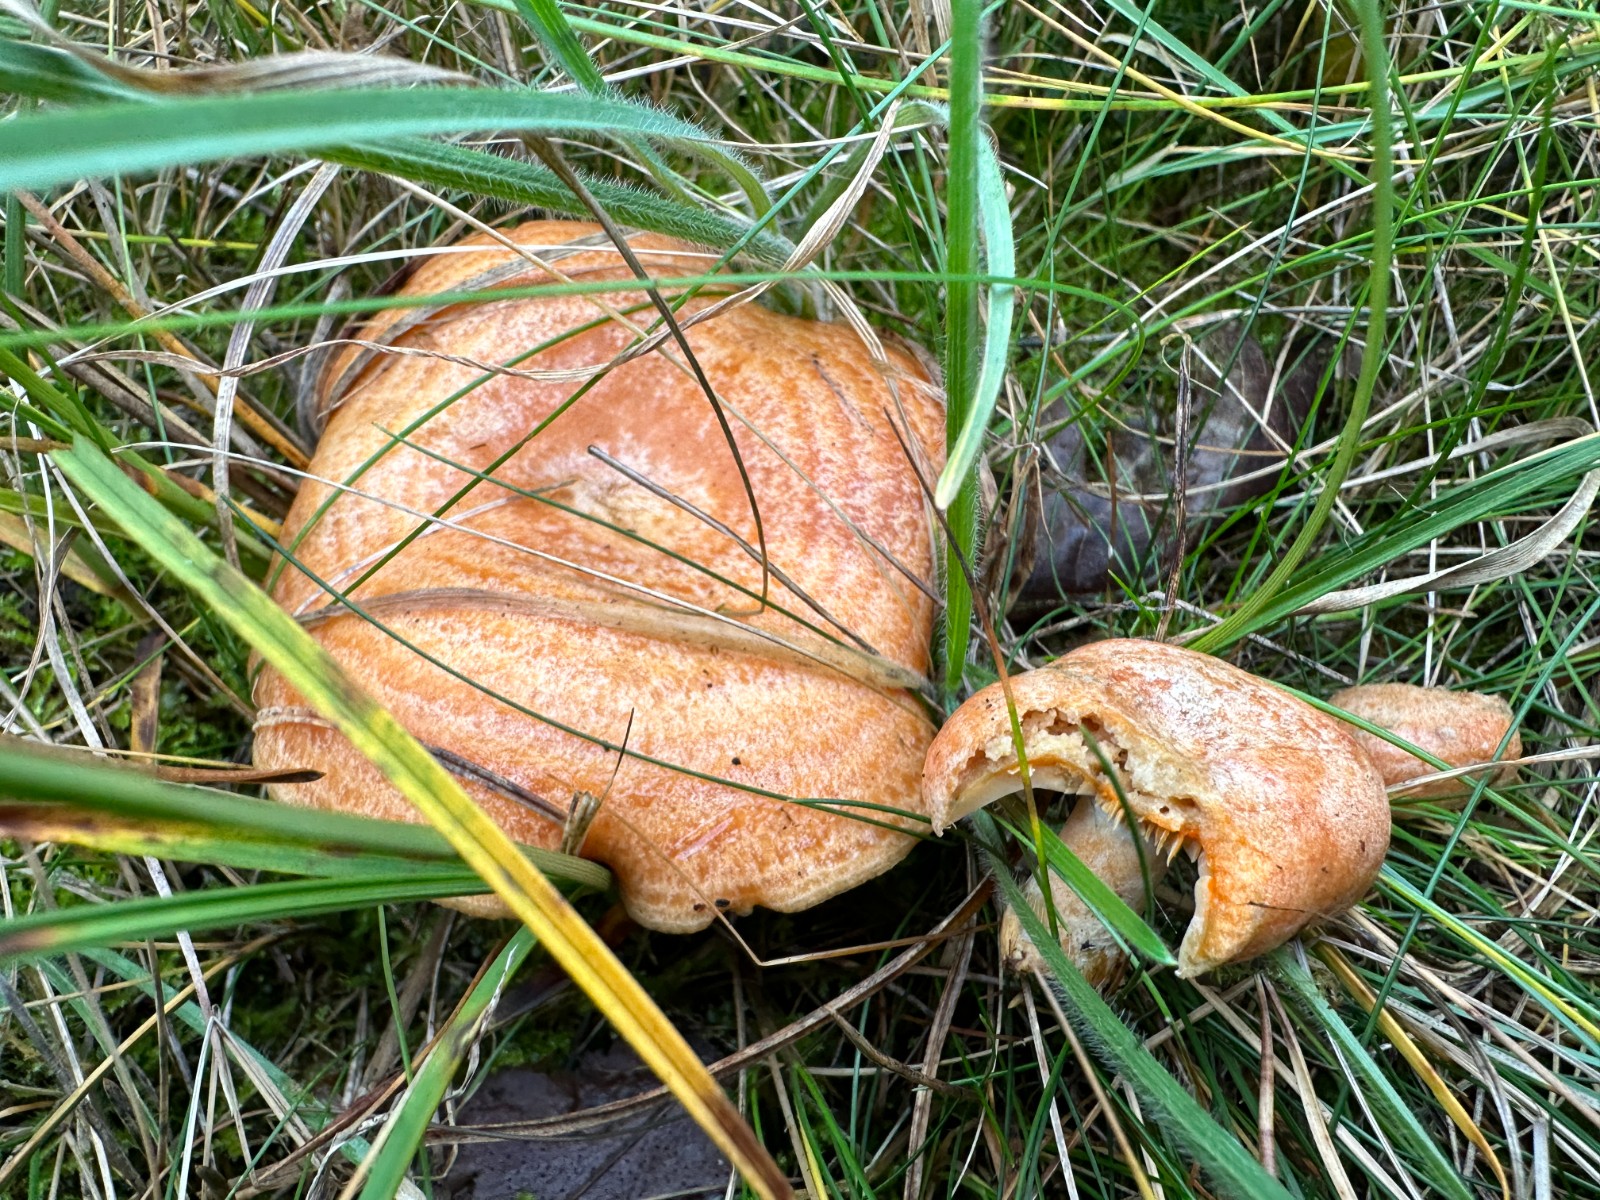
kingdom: Fungi
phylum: Basidiomycota
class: Agaricomycetes
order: Russulales
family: Russulaceae
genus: Lactarius
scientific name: Lactarius deliciosus
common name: velsmagende mælkehat
